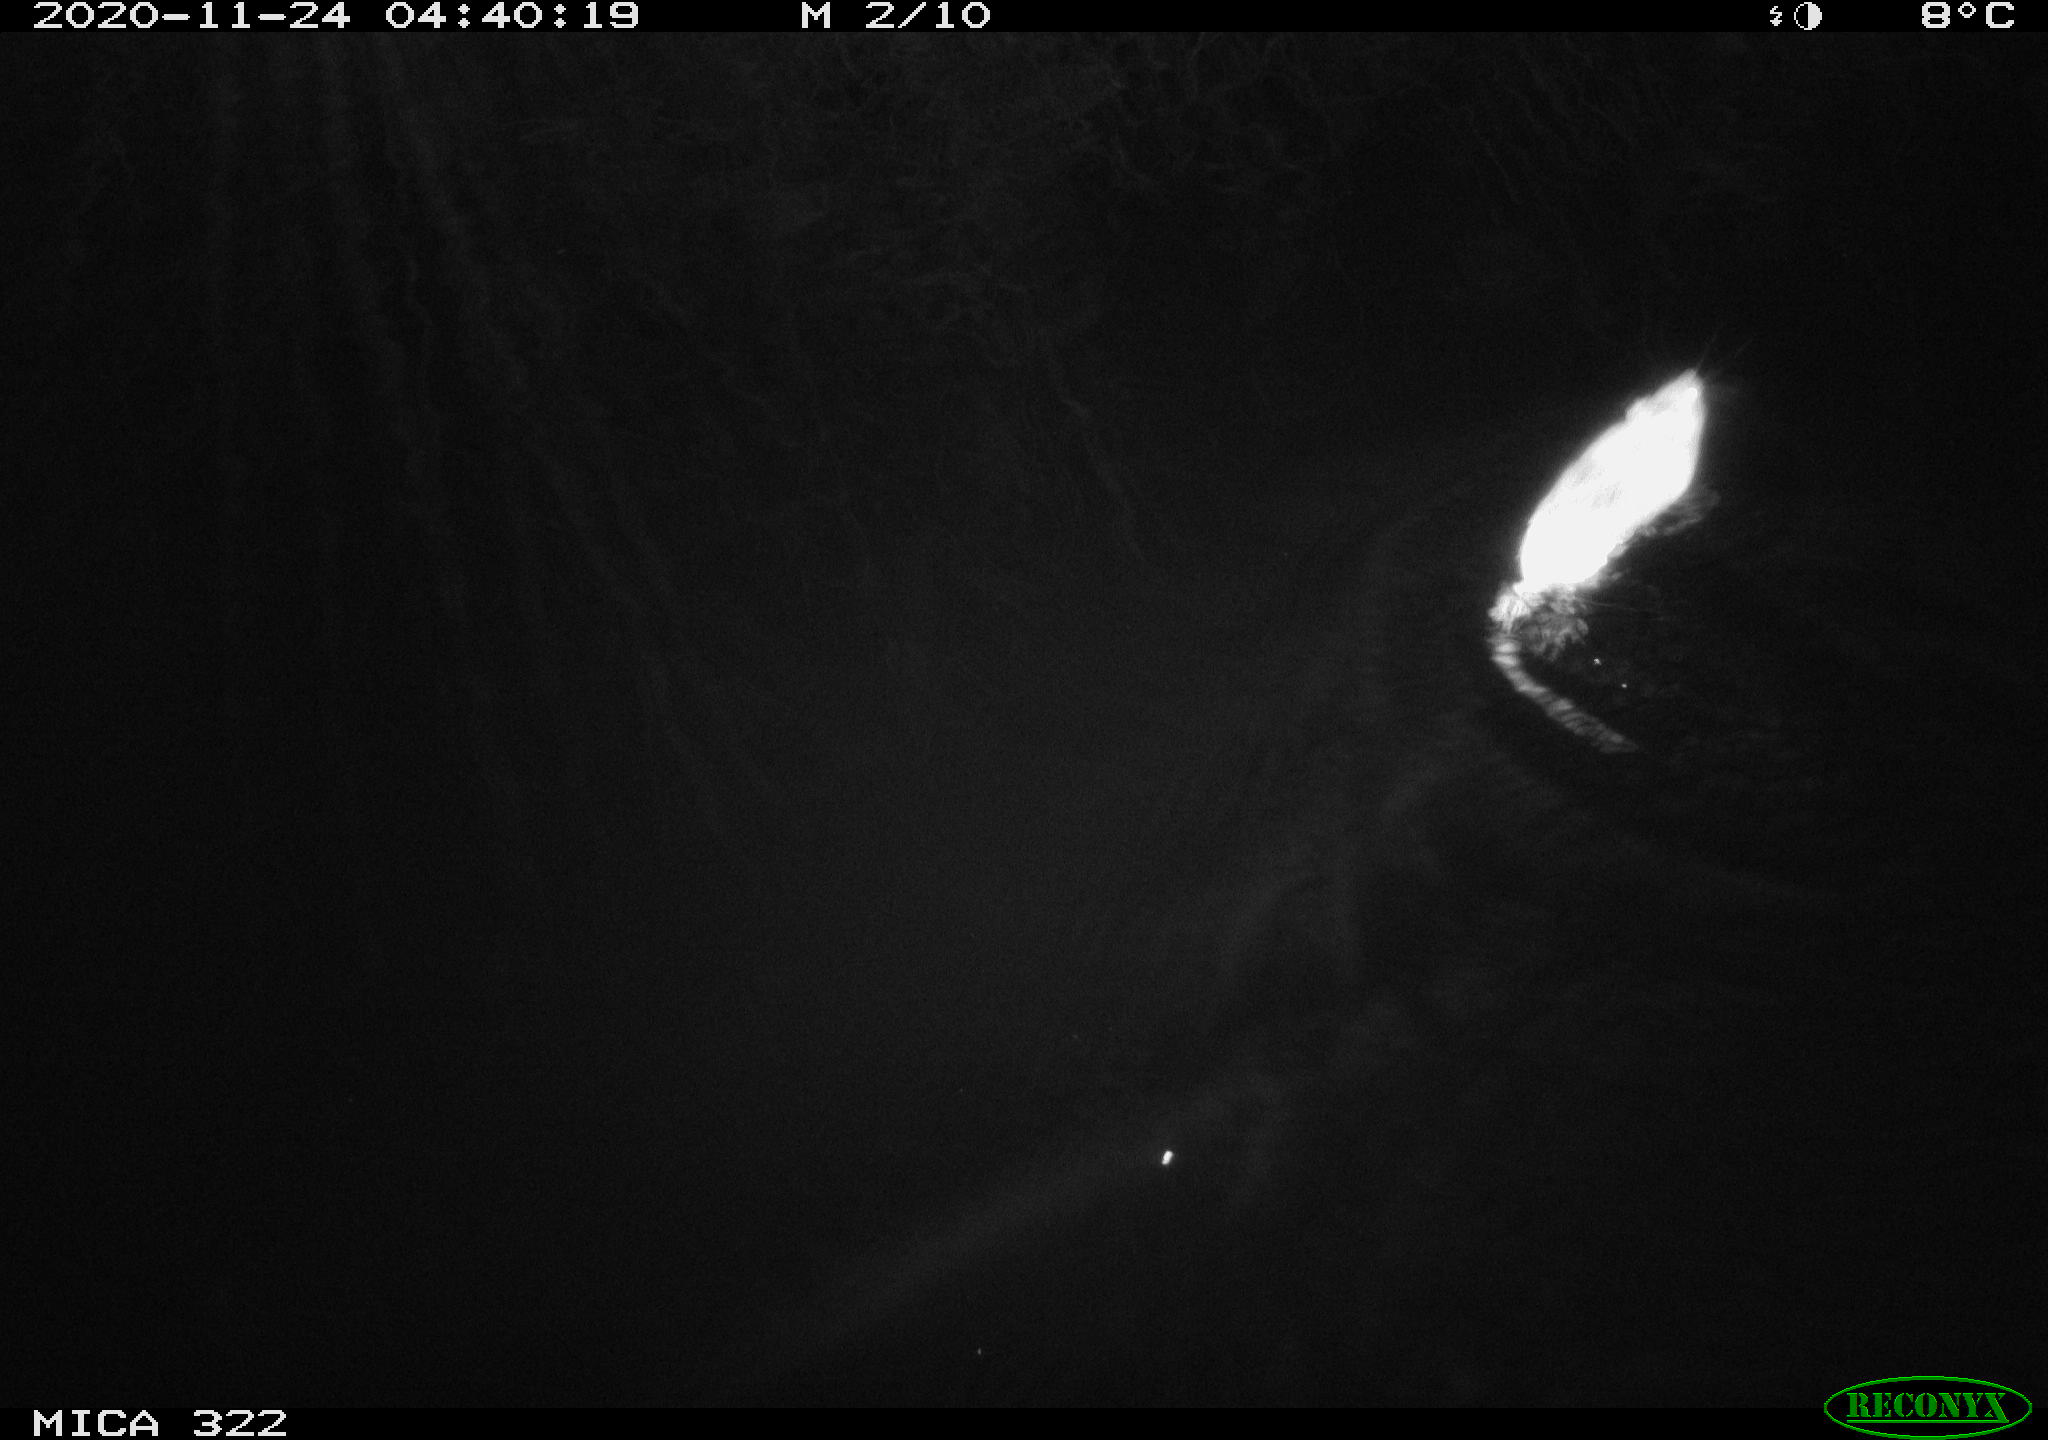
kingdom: Animalia
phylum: Chordata
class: Mammalia
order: Rodentia
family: Muridae
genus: Rattus
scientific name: Rattus norvegicus
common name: Brown rat
